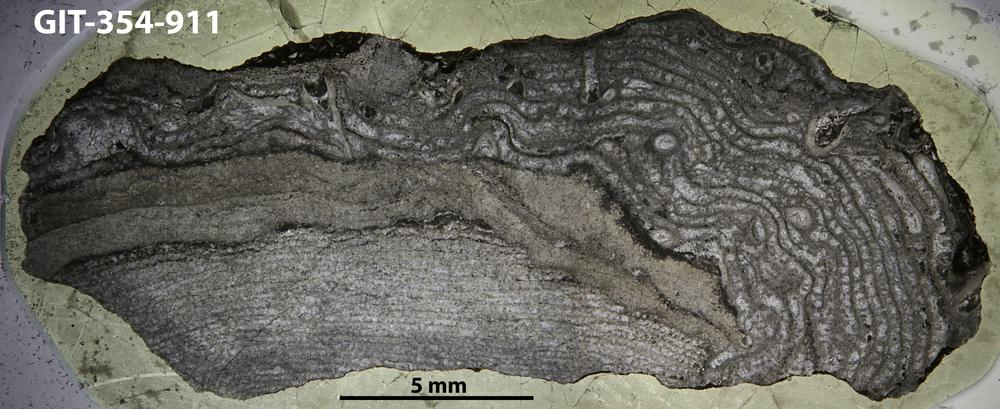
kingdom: Animalia
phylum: Porifera
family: Stromatoporellidae
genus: Simplexodictyon
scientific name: Simplexodictyon
